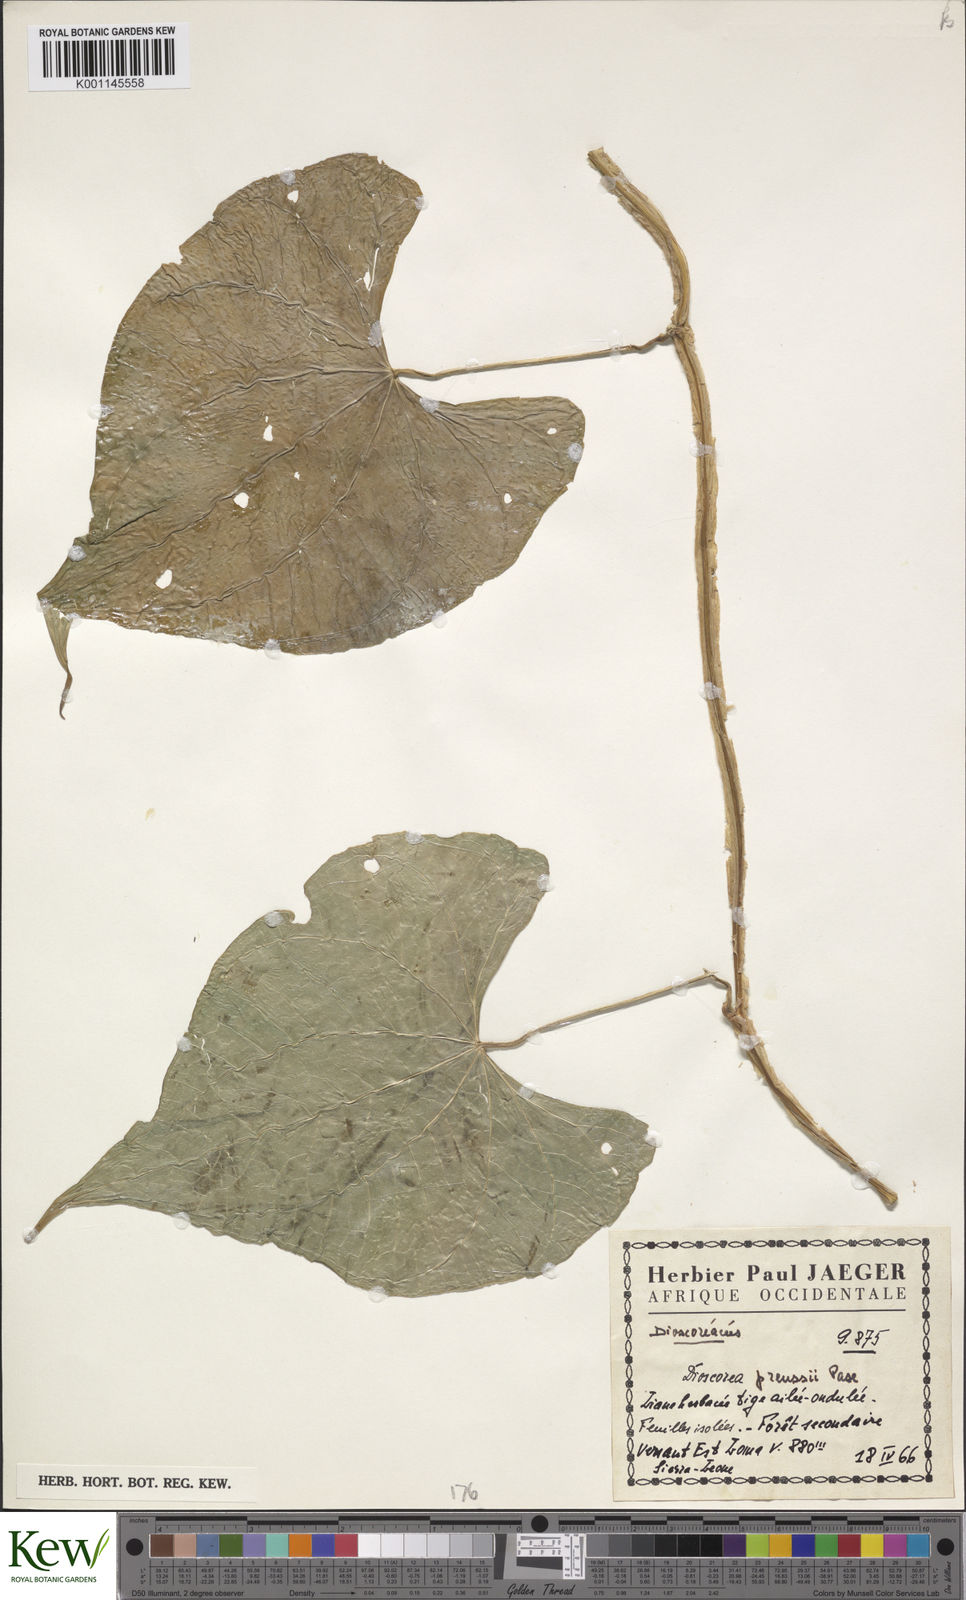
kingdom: Plantae
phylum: Tracheophyta
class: Liliopsida
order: Dioscoreales
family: Dioscoreaceae
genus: Dioscorea
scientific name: Dioscorea preussii
